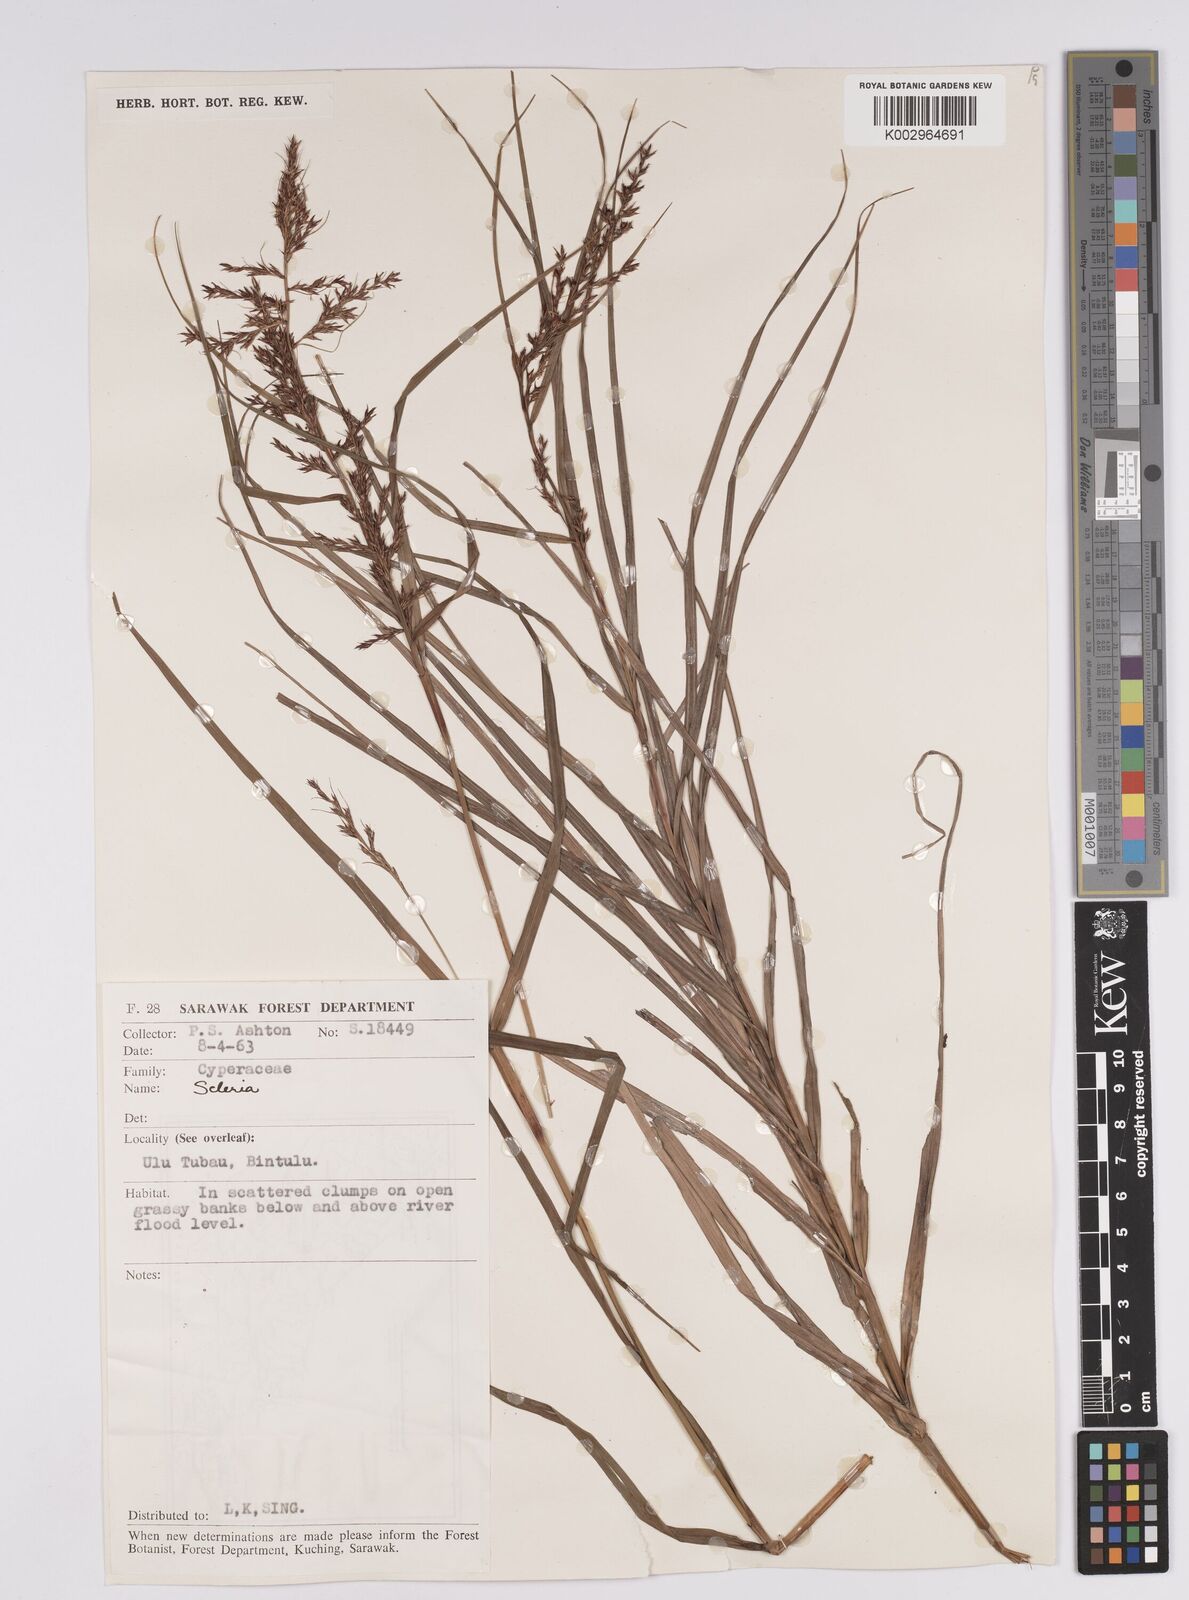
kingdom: Plantae
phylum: Tracheophyta
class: Liliopsida
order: Poales
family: Cyperaceae
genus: Scleria
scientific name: Scleria
